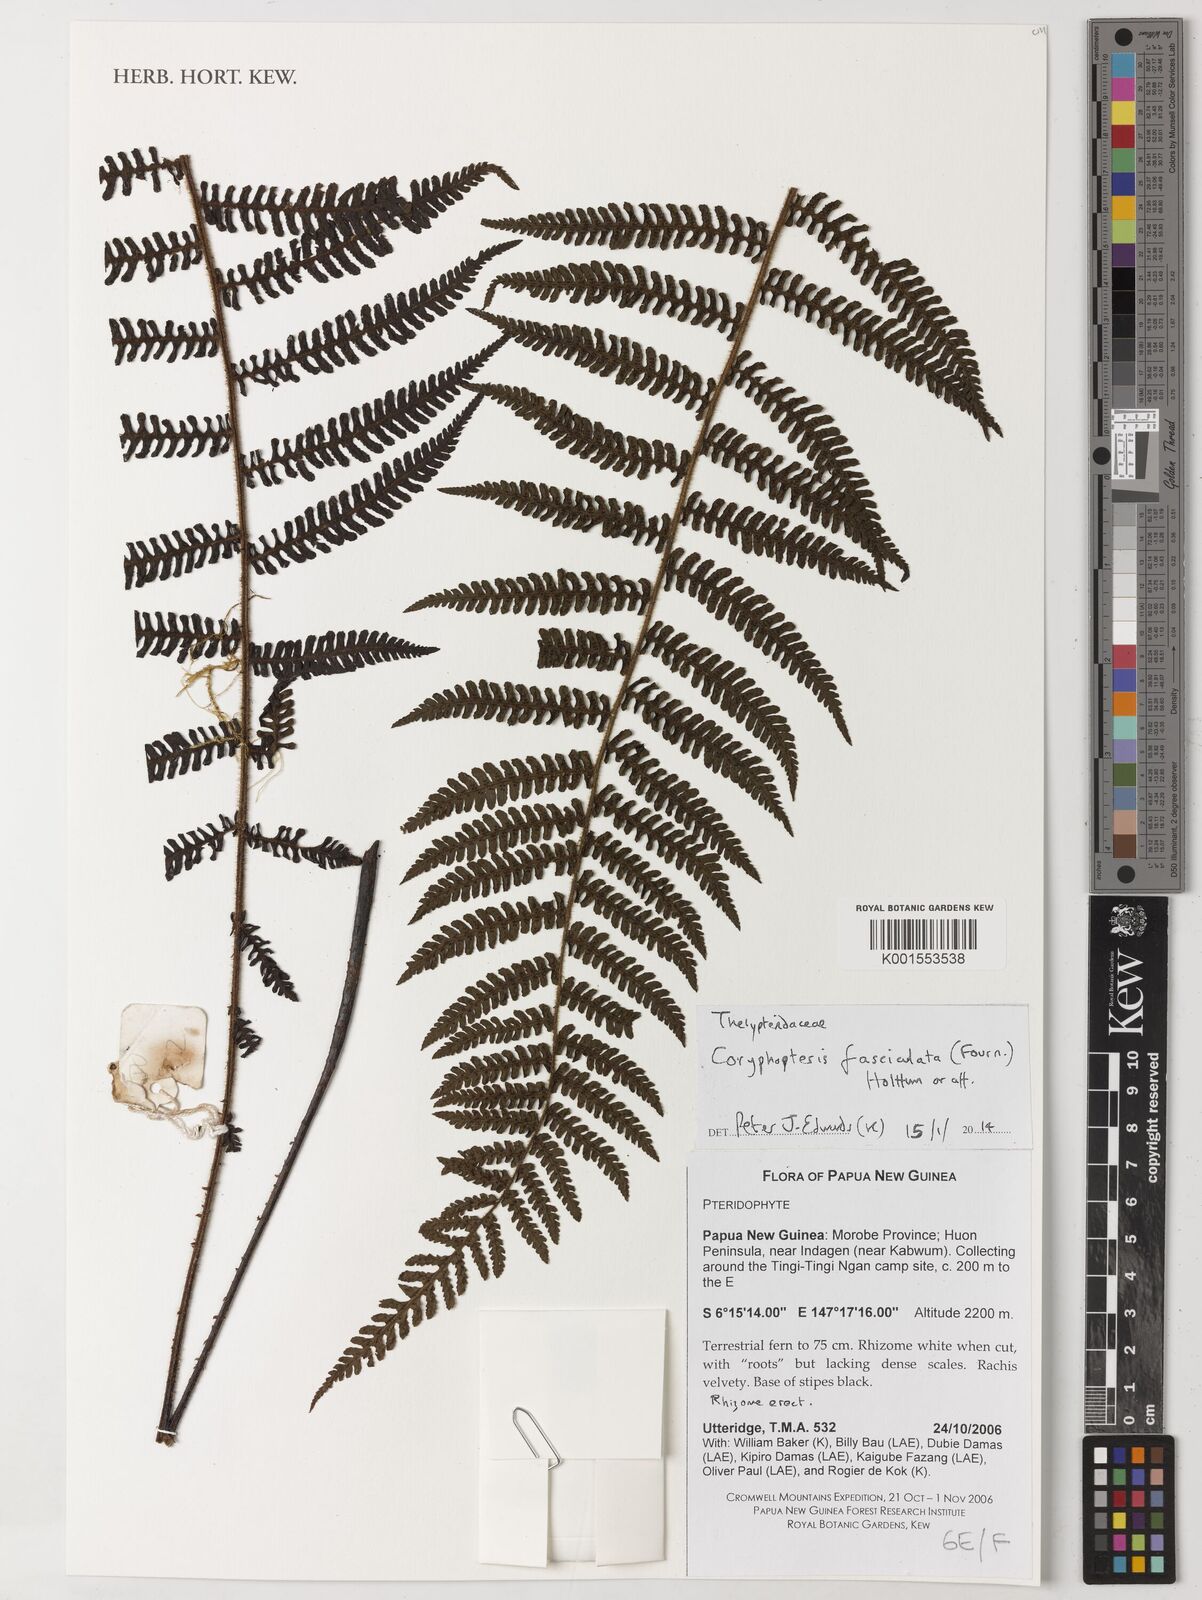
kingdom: Plantae
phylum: Tracheophyta
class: Polypodiopsida
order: Polypodiales
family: Thelypteridaceae
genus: Coryphopteris
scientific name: Coryphopteris fasciculata
